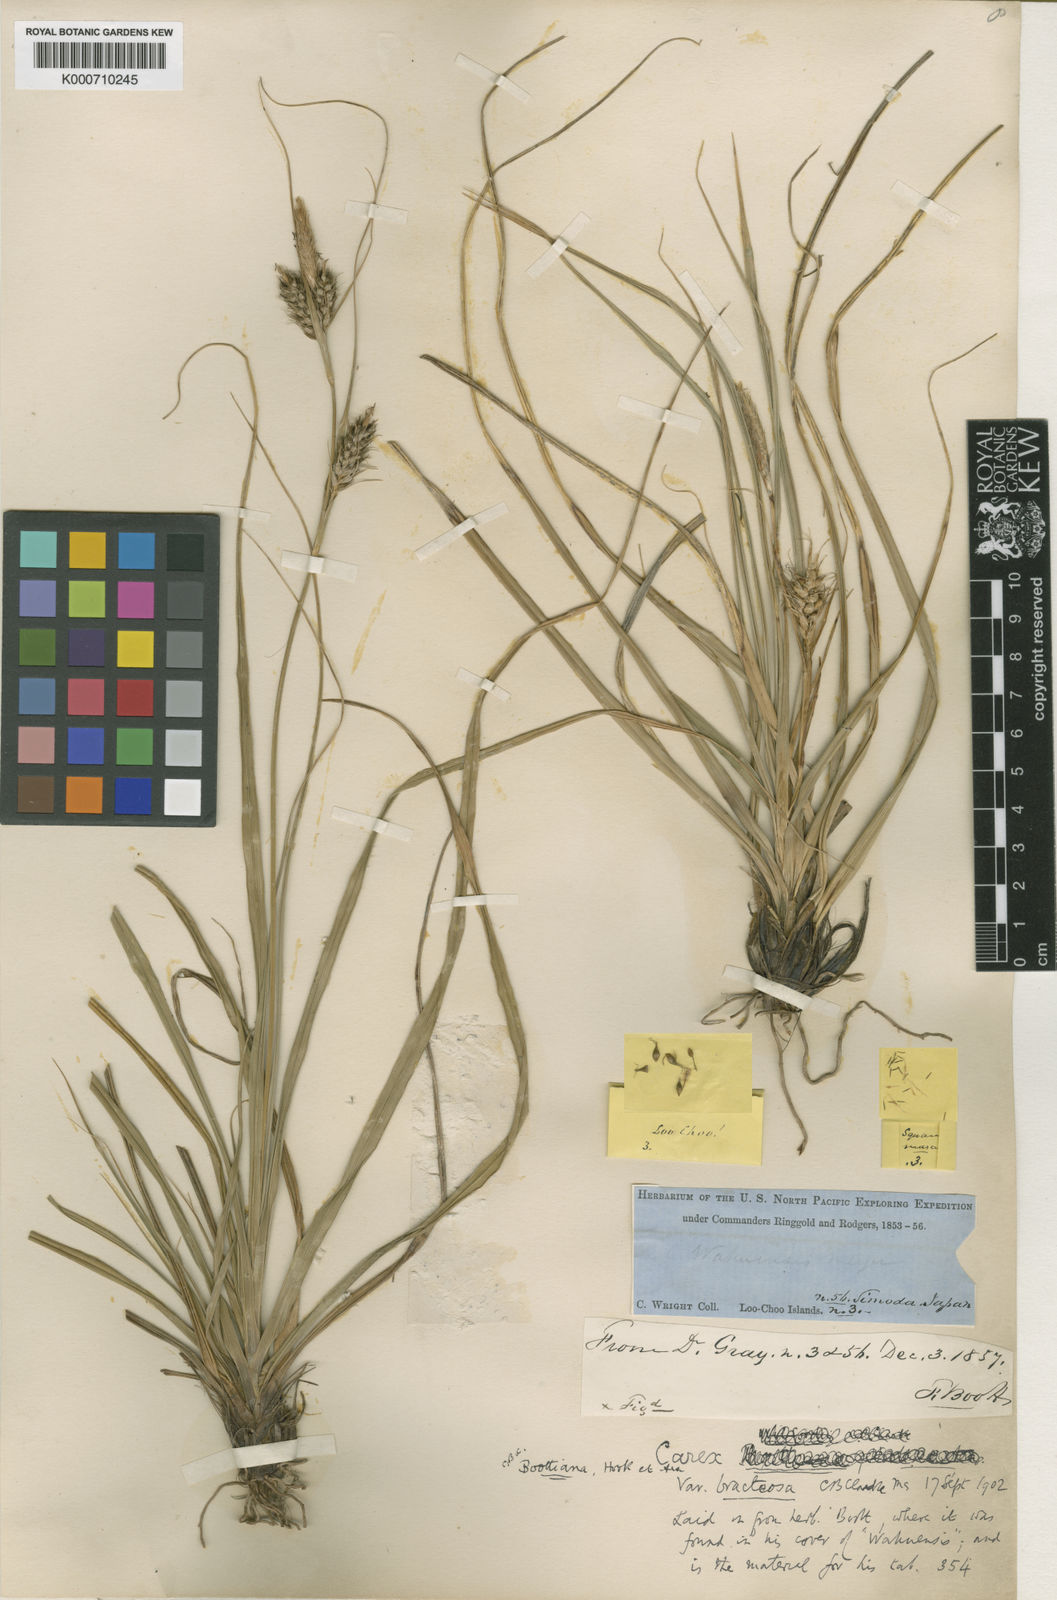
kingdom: Plantae
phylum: Tracheophyta
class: Liliopsida
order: Poales
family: Cyperaceae
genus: Carex
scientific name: Carex wahuensis
